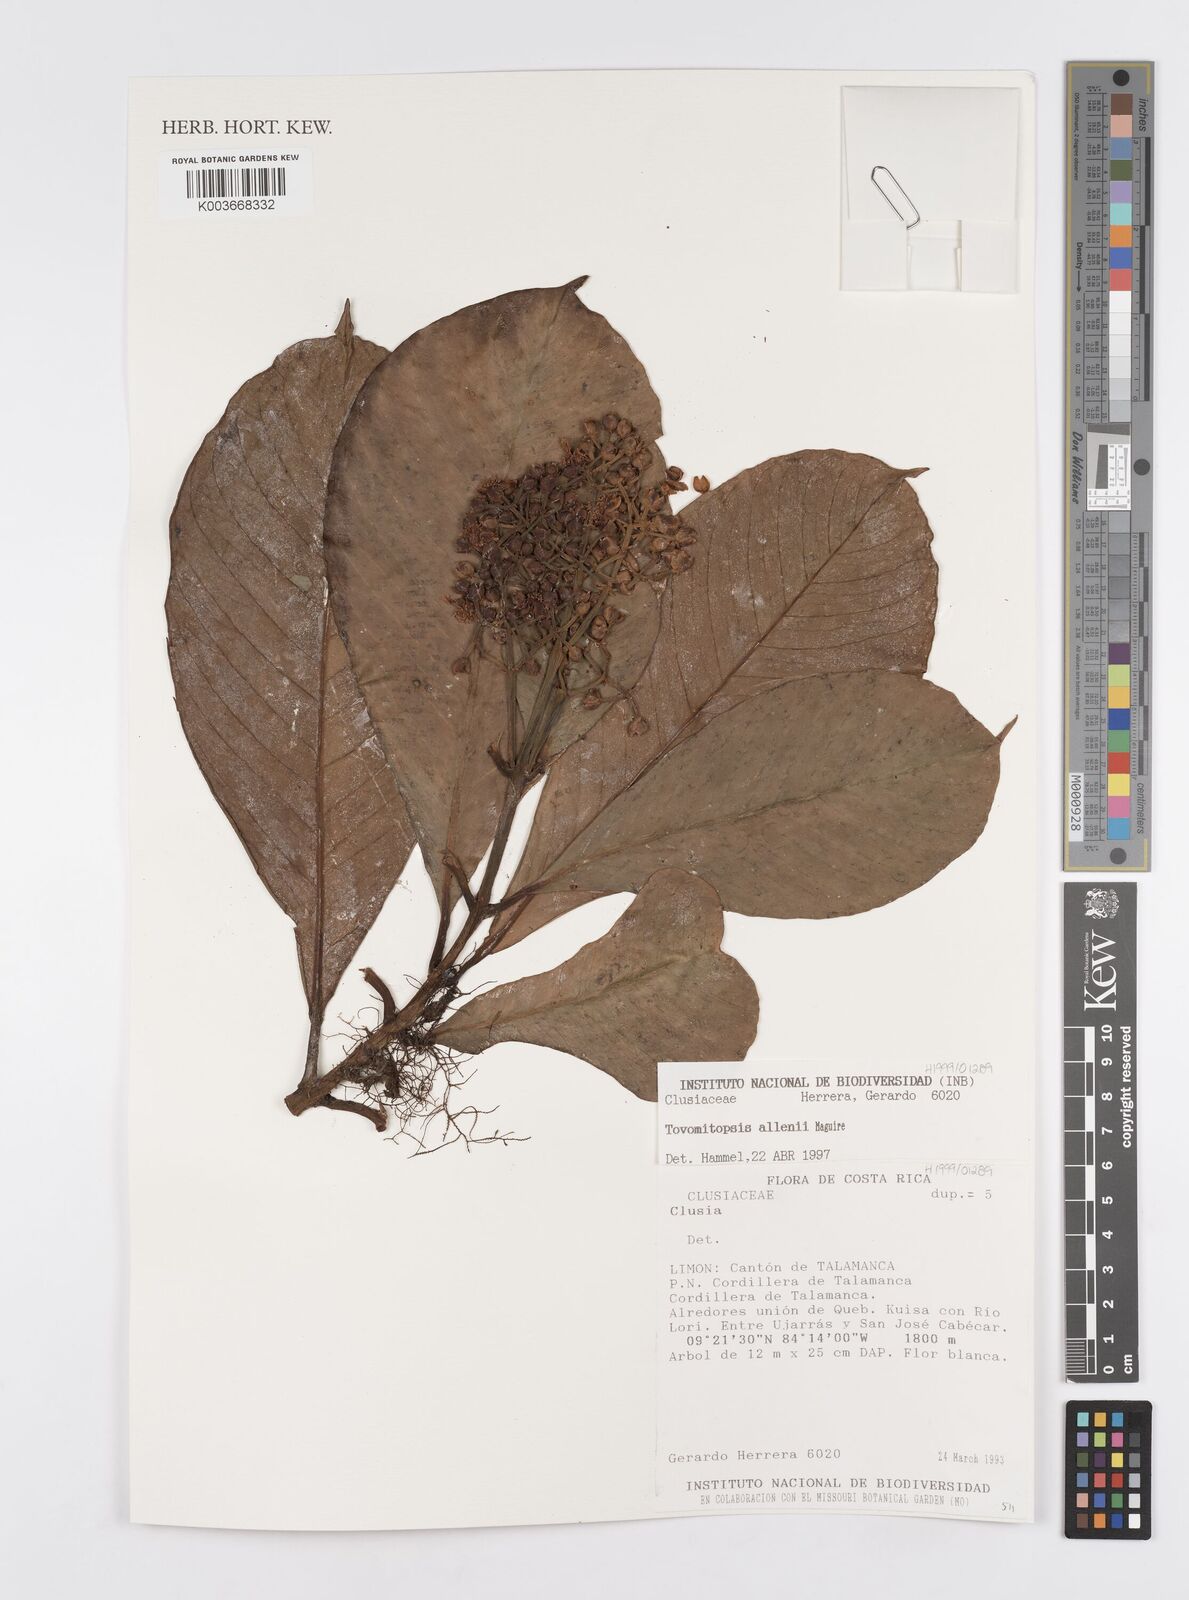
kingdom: Plantae
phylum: Tracheophyta
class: Magnoliopsida
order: Malpighiales
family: Clusiaceae
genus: Chrysochlamys
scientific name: Chrysochlamys allenii
